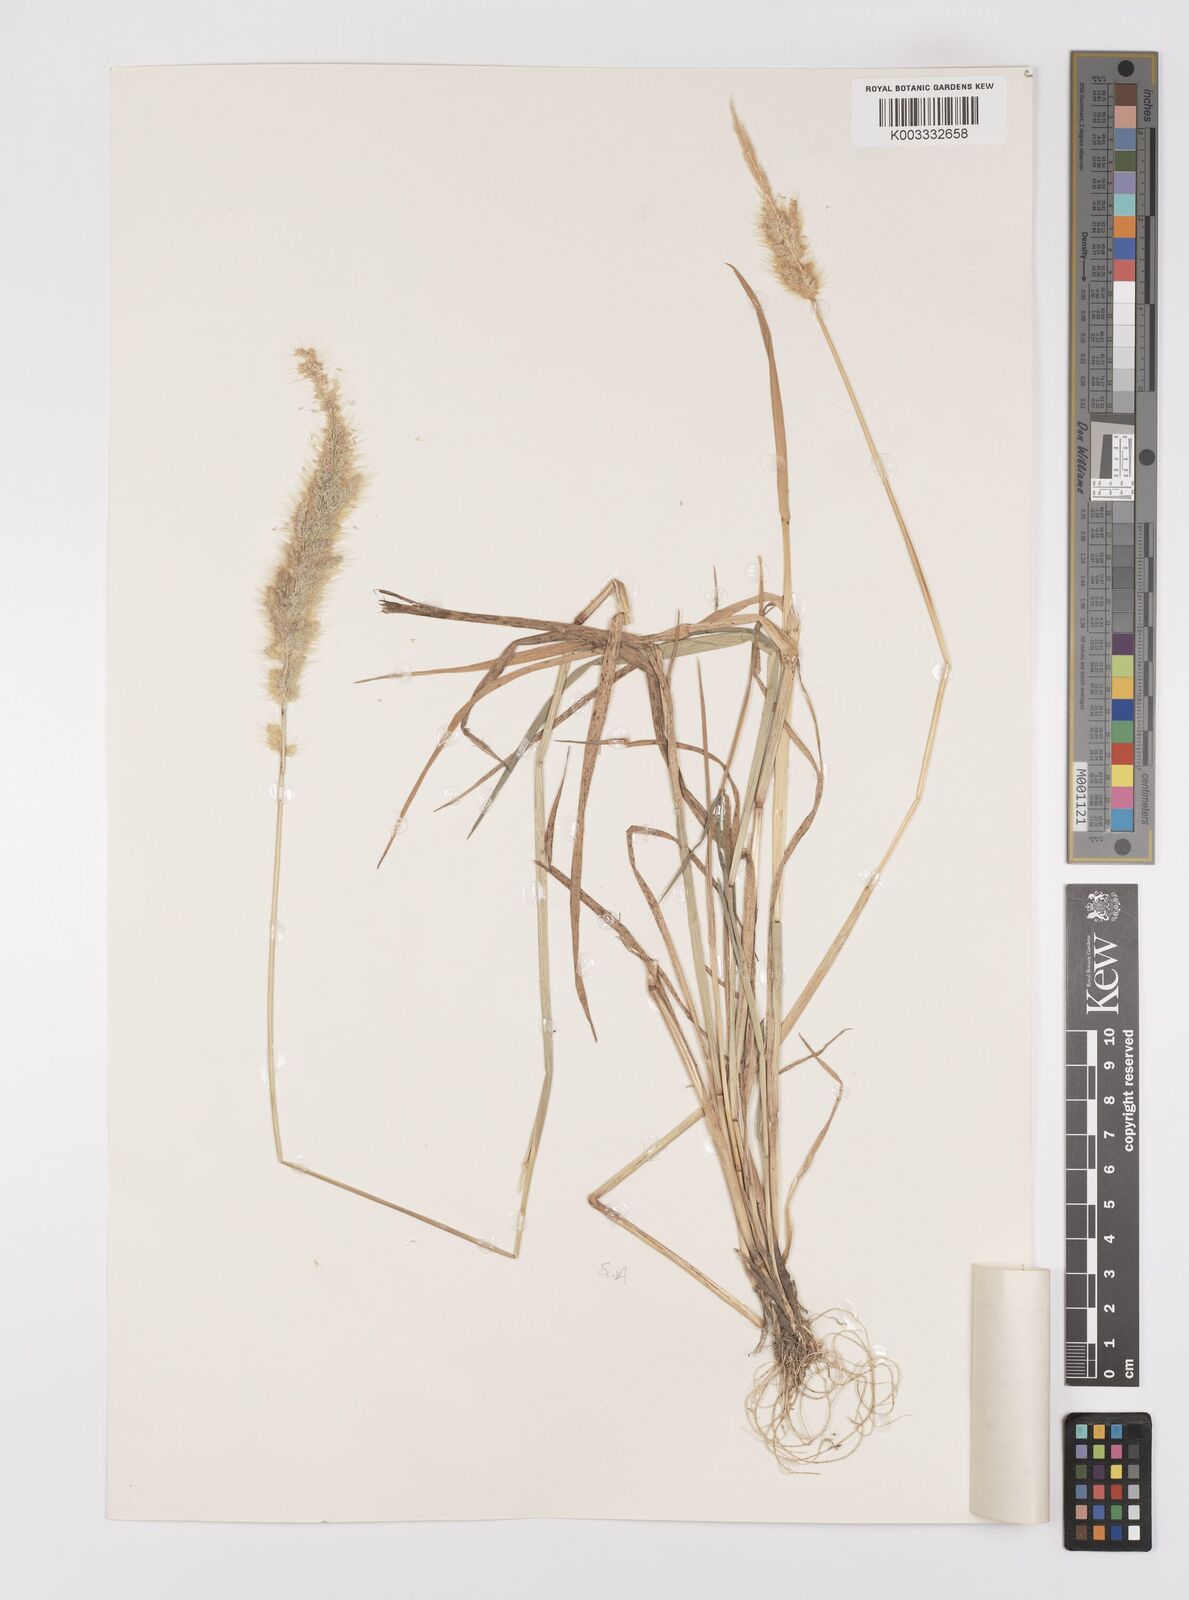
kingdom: Plantae
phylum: Tracheophyta
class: Liliopsida
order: Poales
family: Poaceae
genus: Polypogon
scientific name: Polypogon monspeliensis
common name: Annual rabbitsfoot grass
